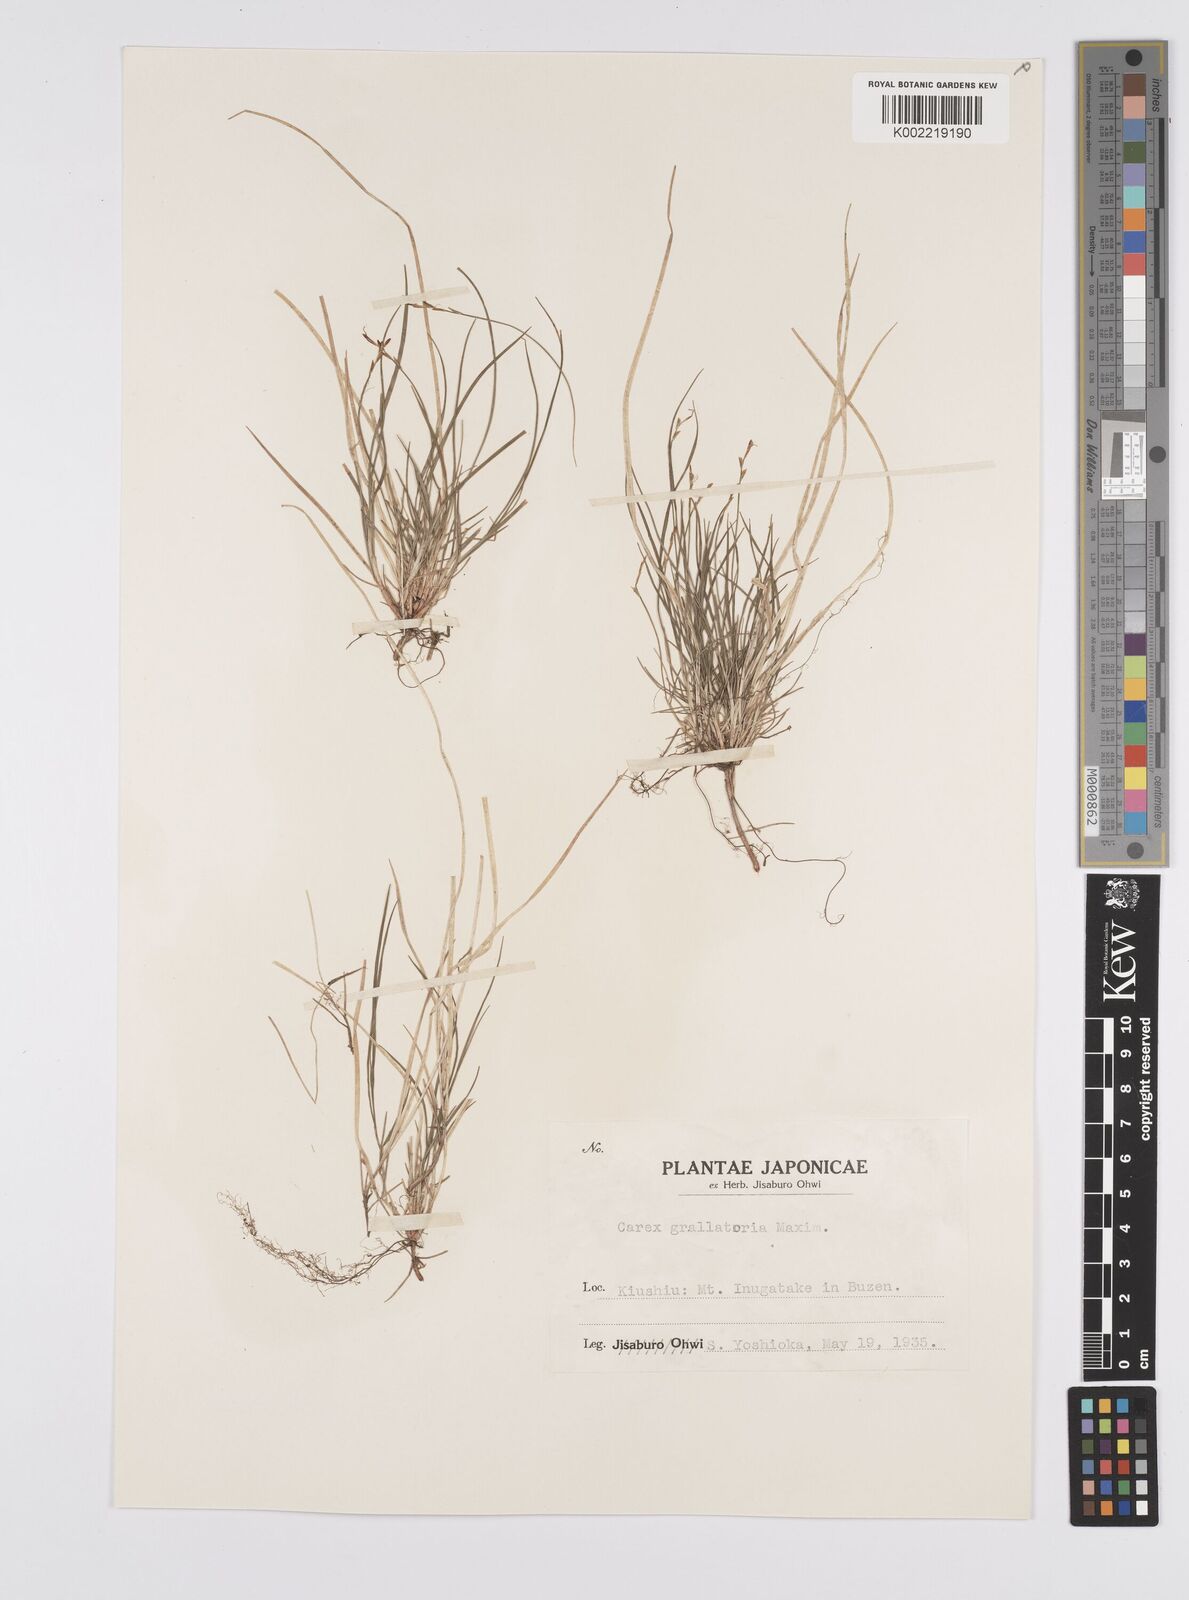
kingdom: Plantae
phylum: Tracheophyta
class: Liliopsida
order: Poales
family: Cyperaceae
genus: Carex
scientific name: Carex grallatoria
